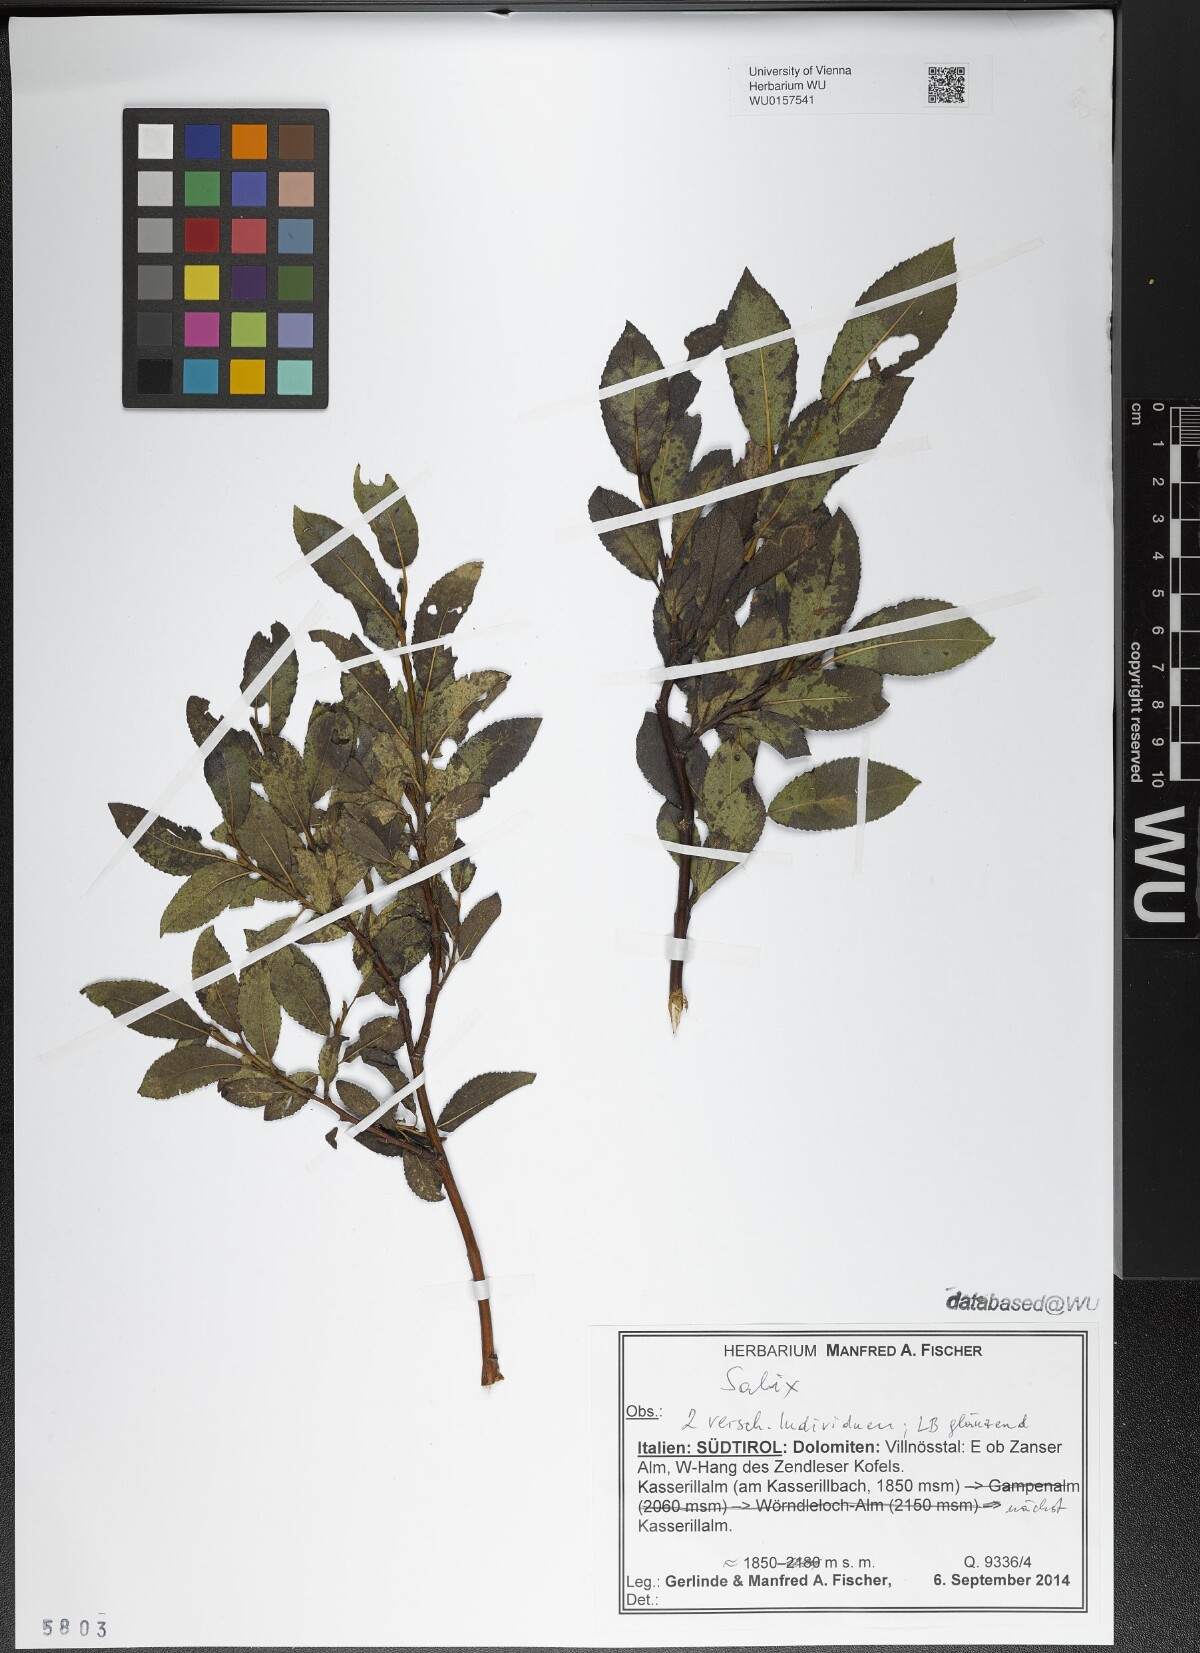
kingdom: Plantae
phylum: Tracheophyta
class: Magnoliopsida
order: Malpighiales
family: Salicaceae
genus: Salix
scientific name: Salix
